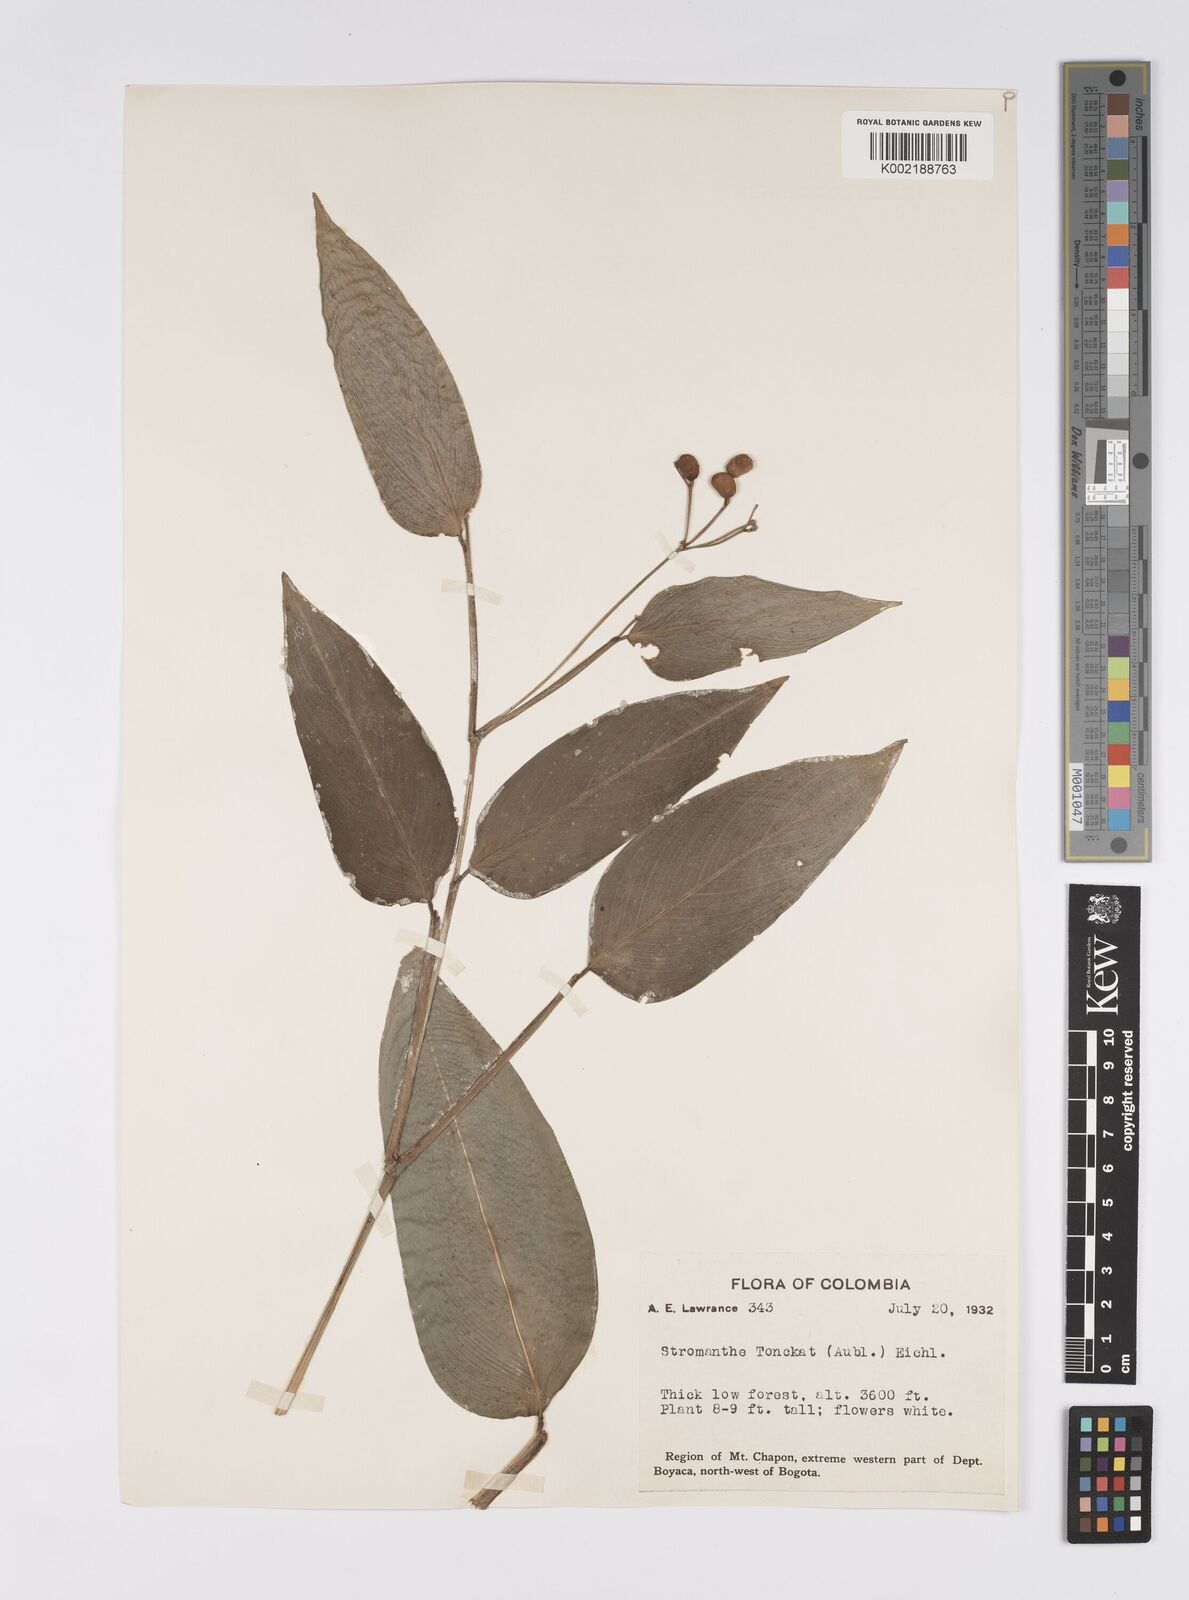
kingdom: Plantae
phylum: Tracheophyta
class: Liliopsida
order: Zingiberales
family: Marantaceae
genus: Stromanthe
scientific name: Stromanthe tonckat
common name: Stromanthe
